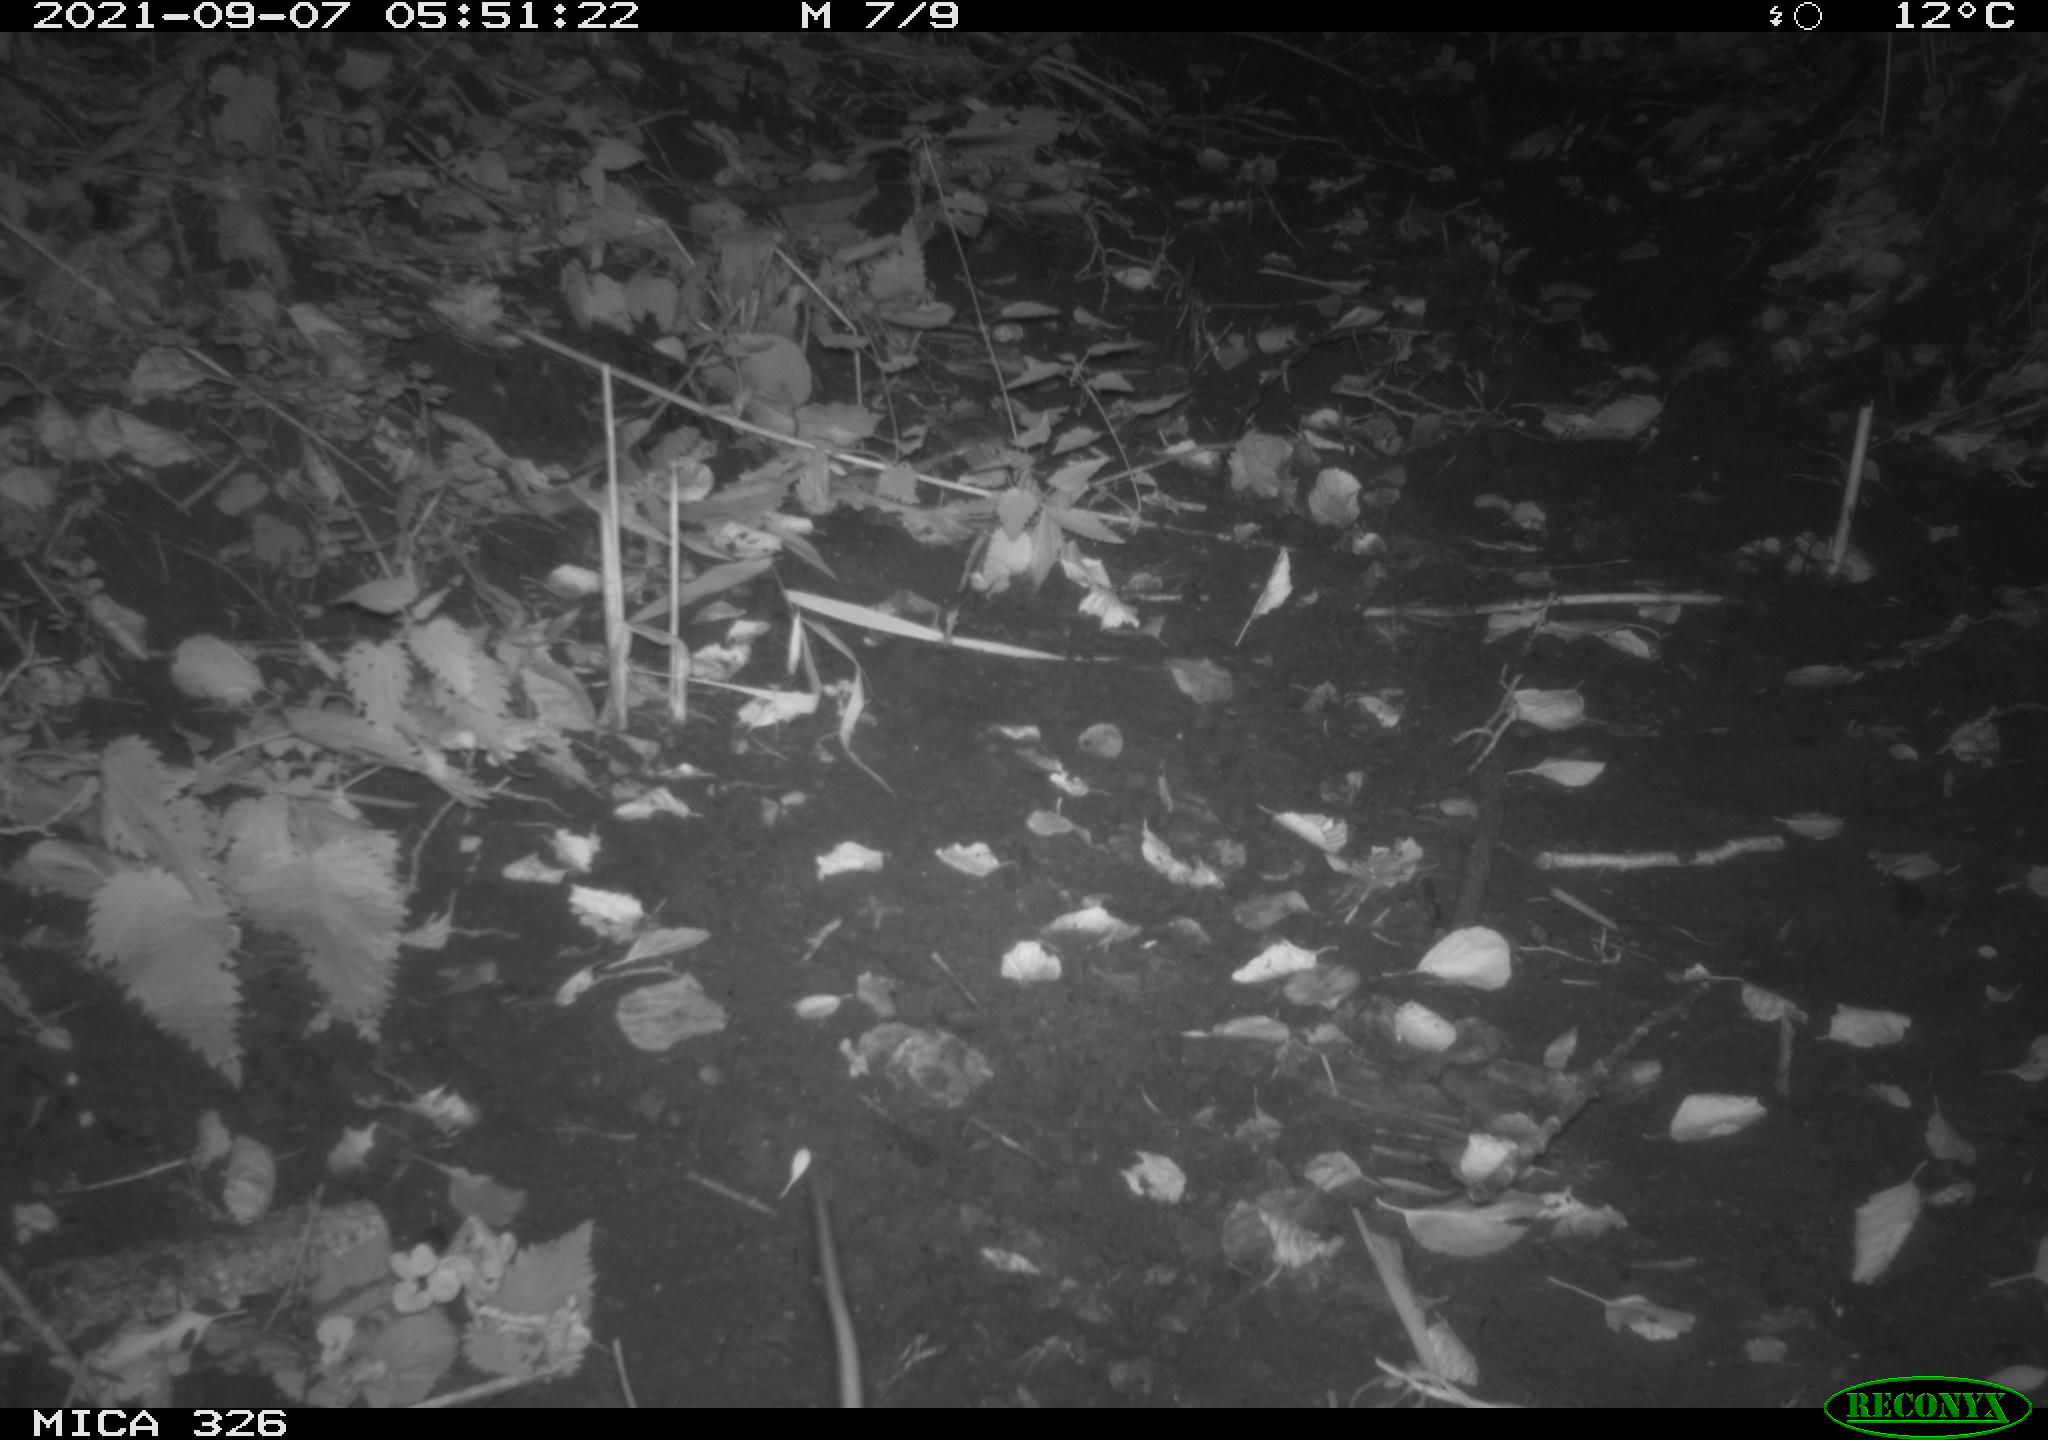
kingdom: Animalia
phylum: Chordata
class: Mammalia
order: Rodentia
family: Muridae
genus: Rattus
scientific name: Rattus norvegicus
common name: Brown rat
